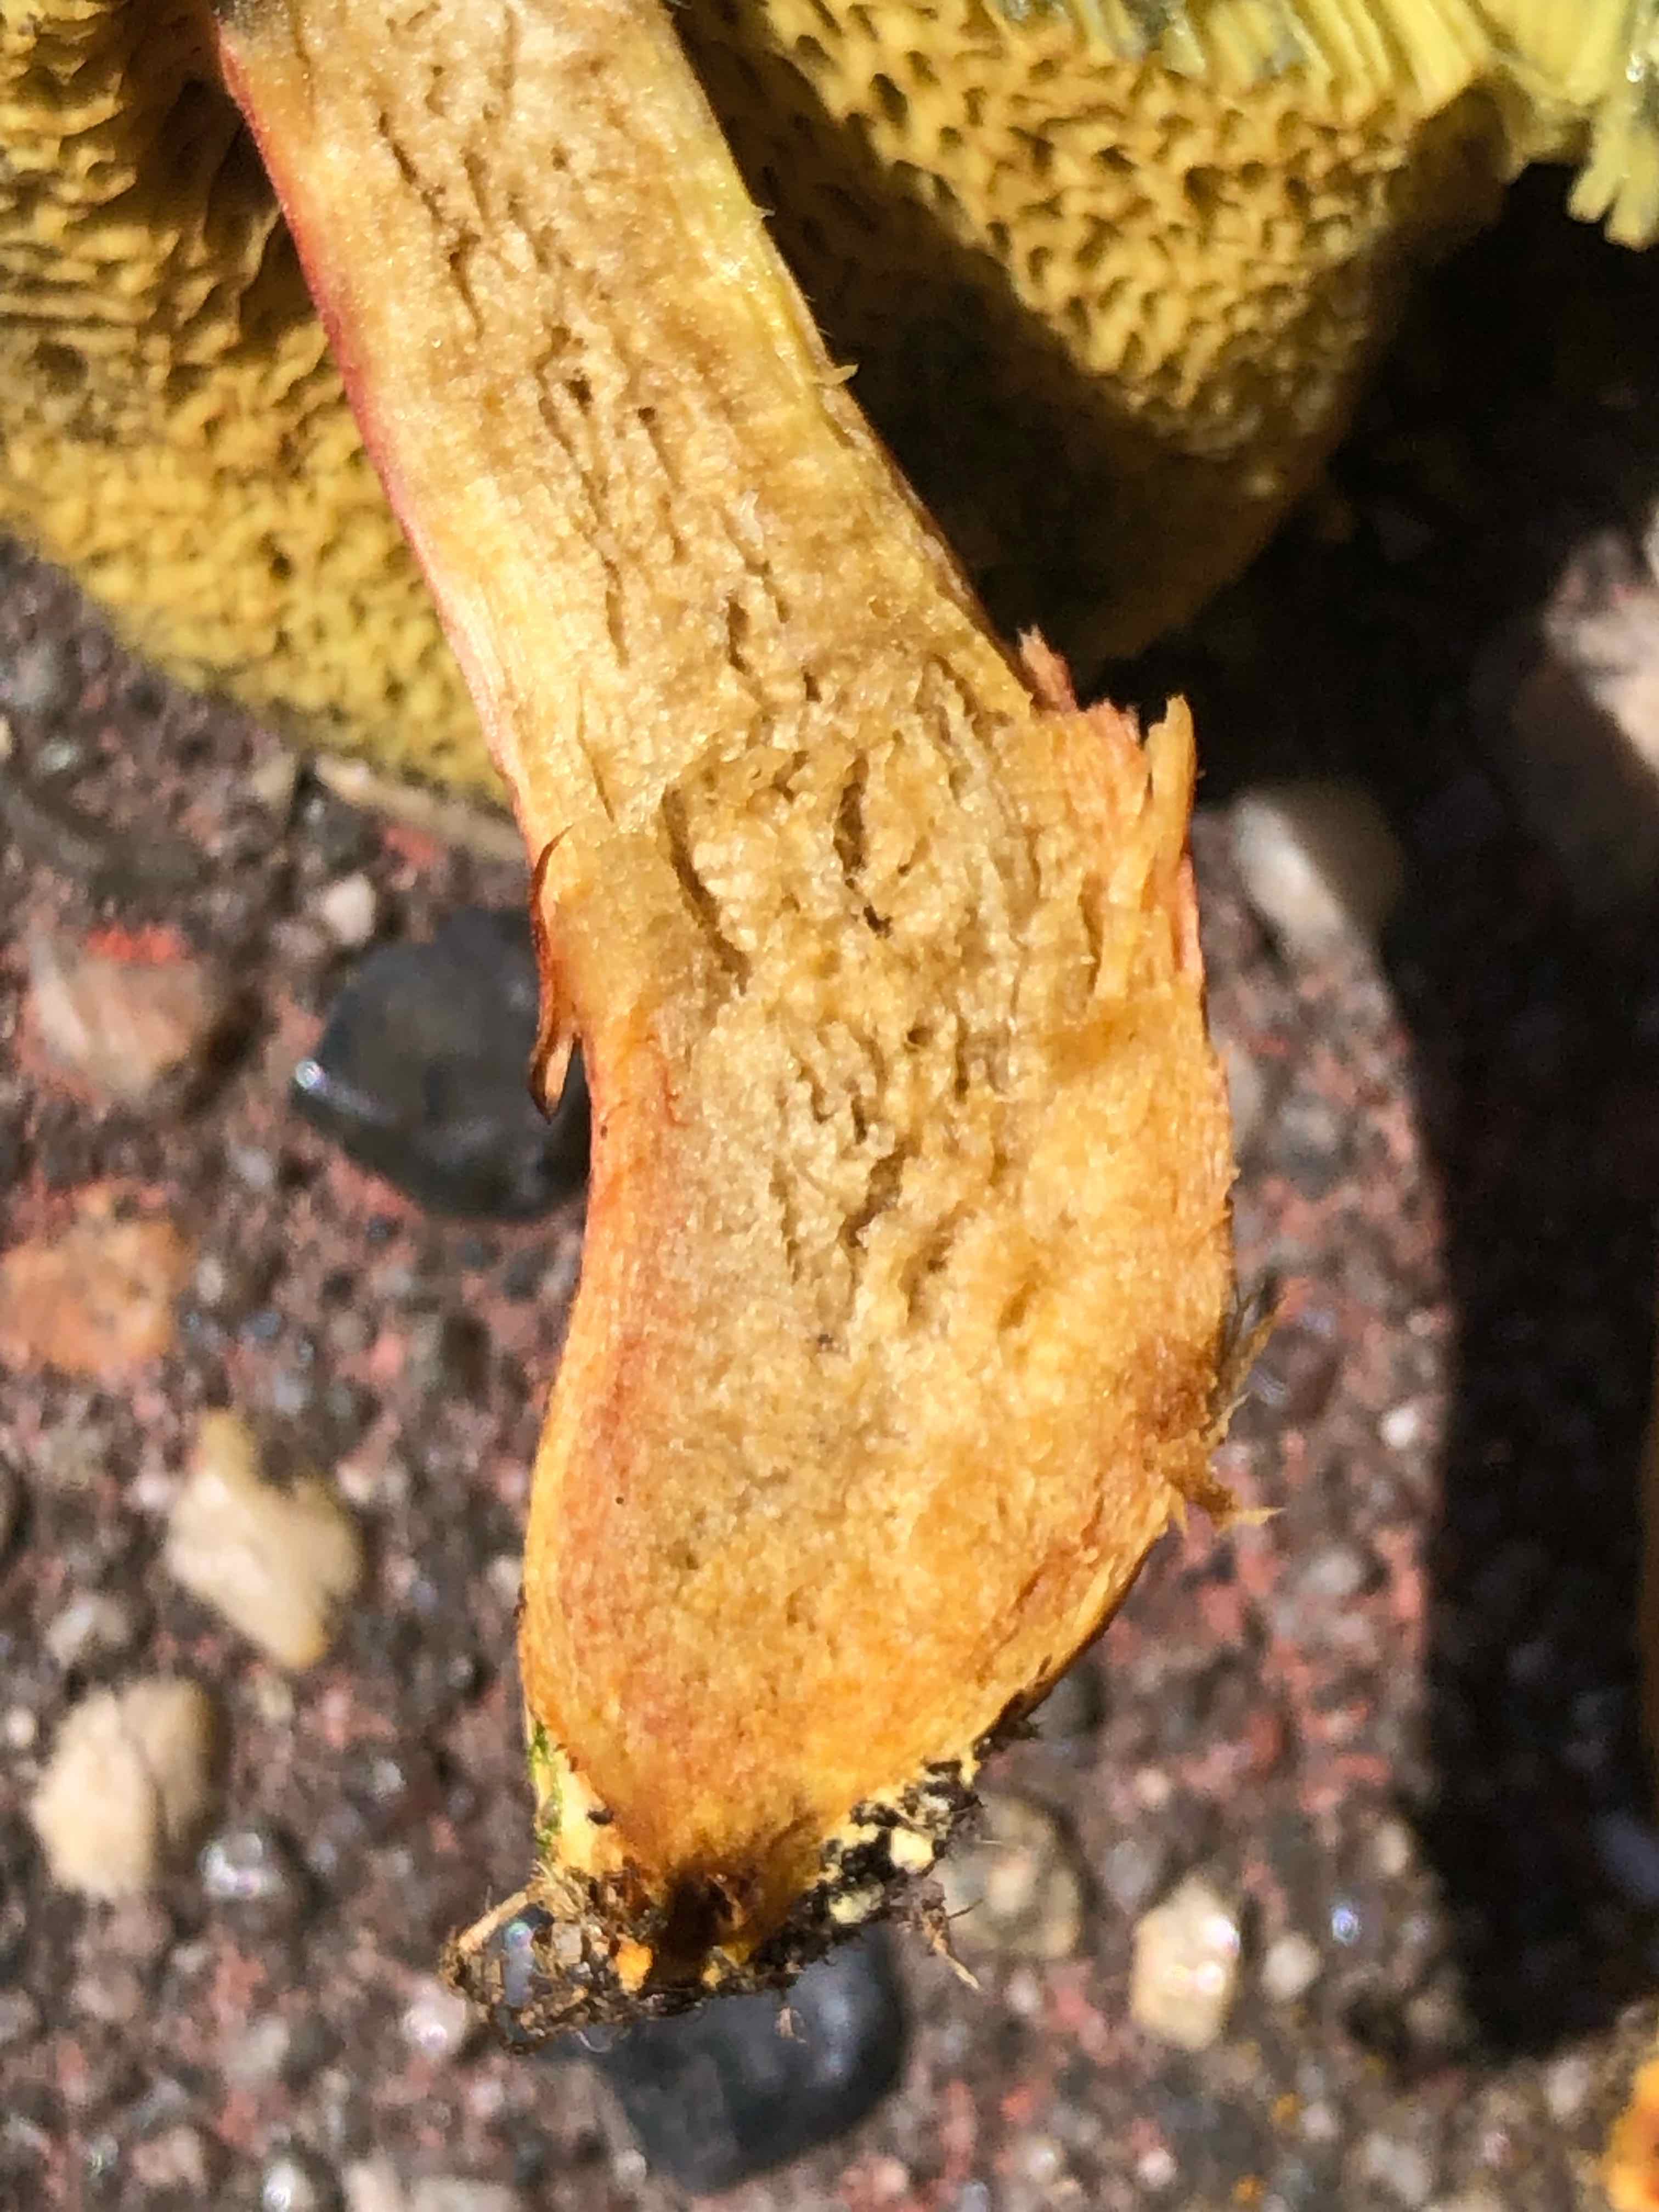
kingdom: Fungi
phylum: Basidiomycota
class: Agaricomycetes
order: Boletales
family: Boletaceae
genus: Hortiboletus
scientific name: Hortiboletus bubalinus
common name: aurora-rørhat
